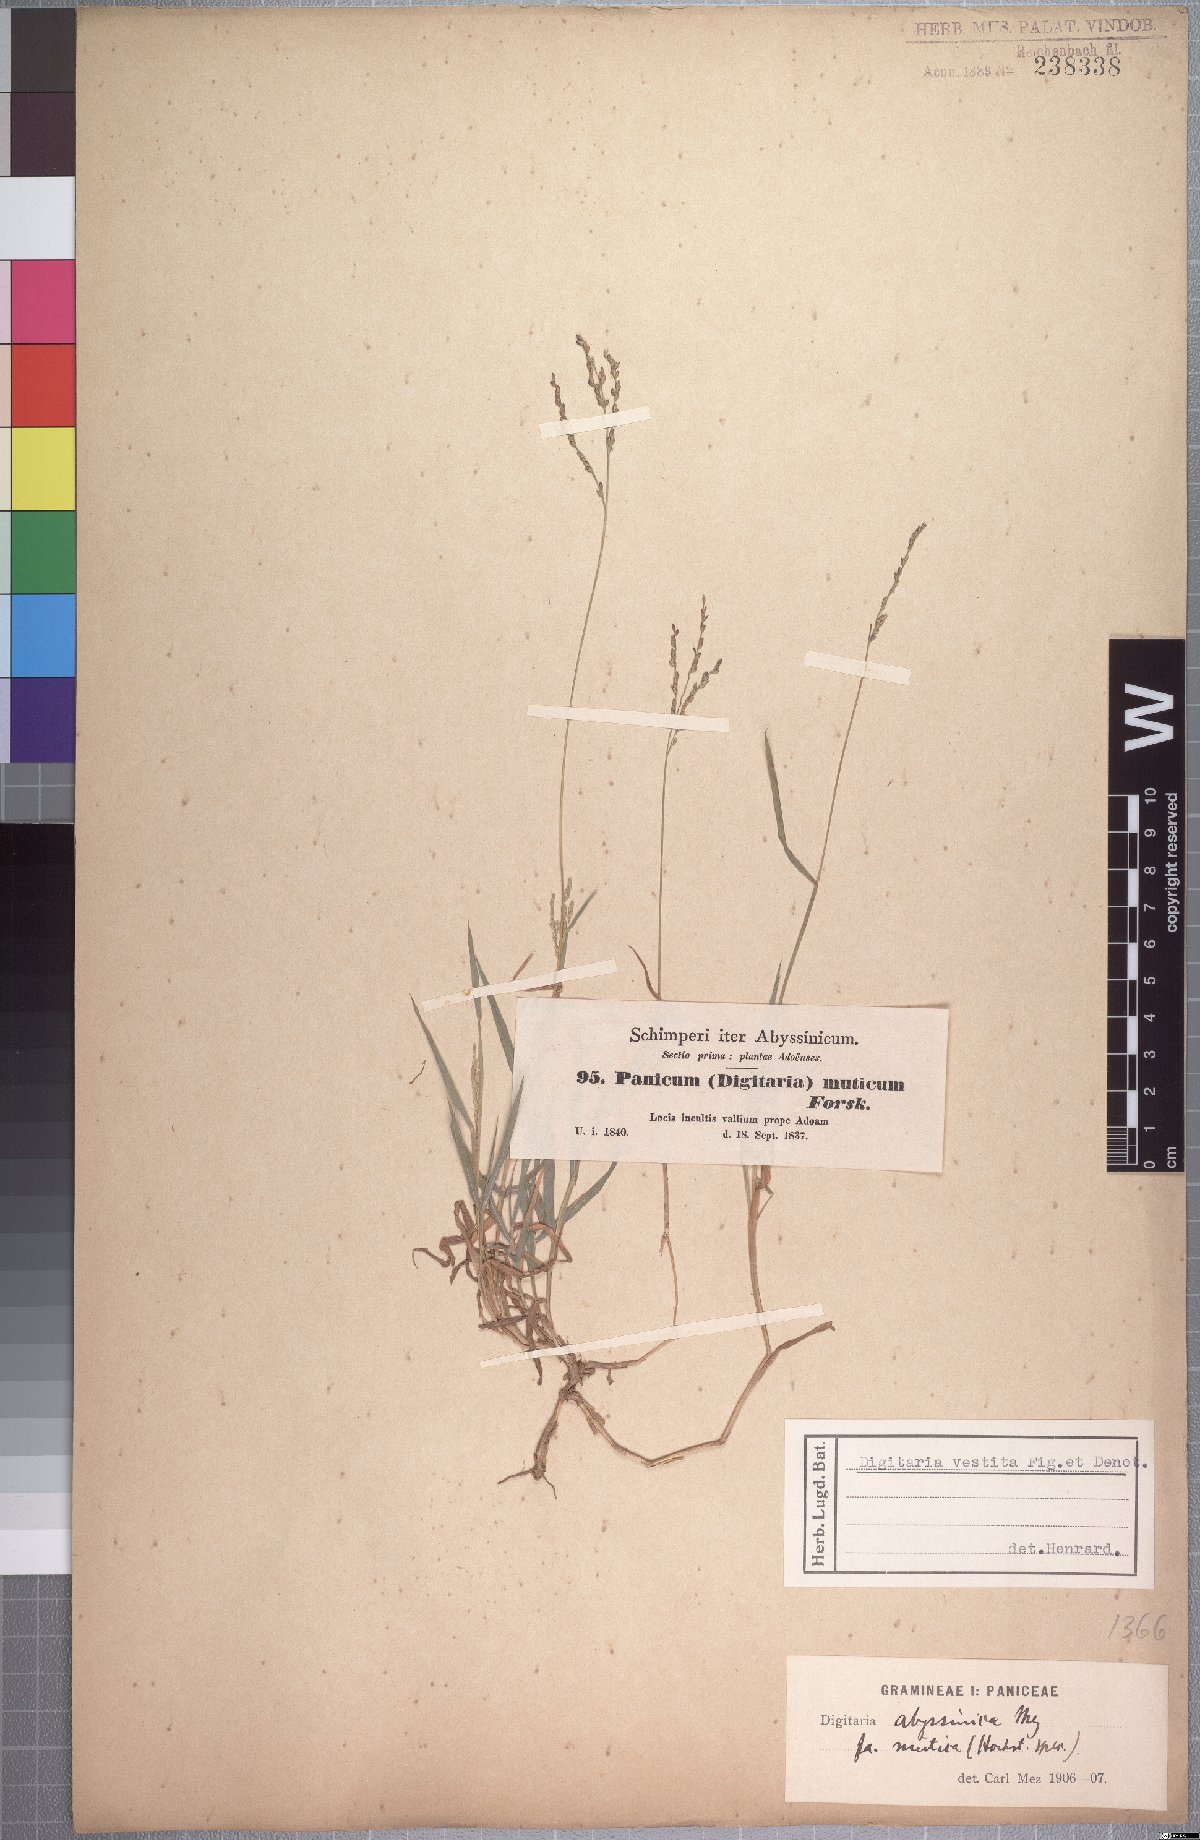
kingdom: Plantae
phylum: Tracheophyta
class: Liliopsida
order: Poales
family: Poaceae
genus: Digitaria
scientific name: Digitaria abyssinica
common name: African couchgrass
